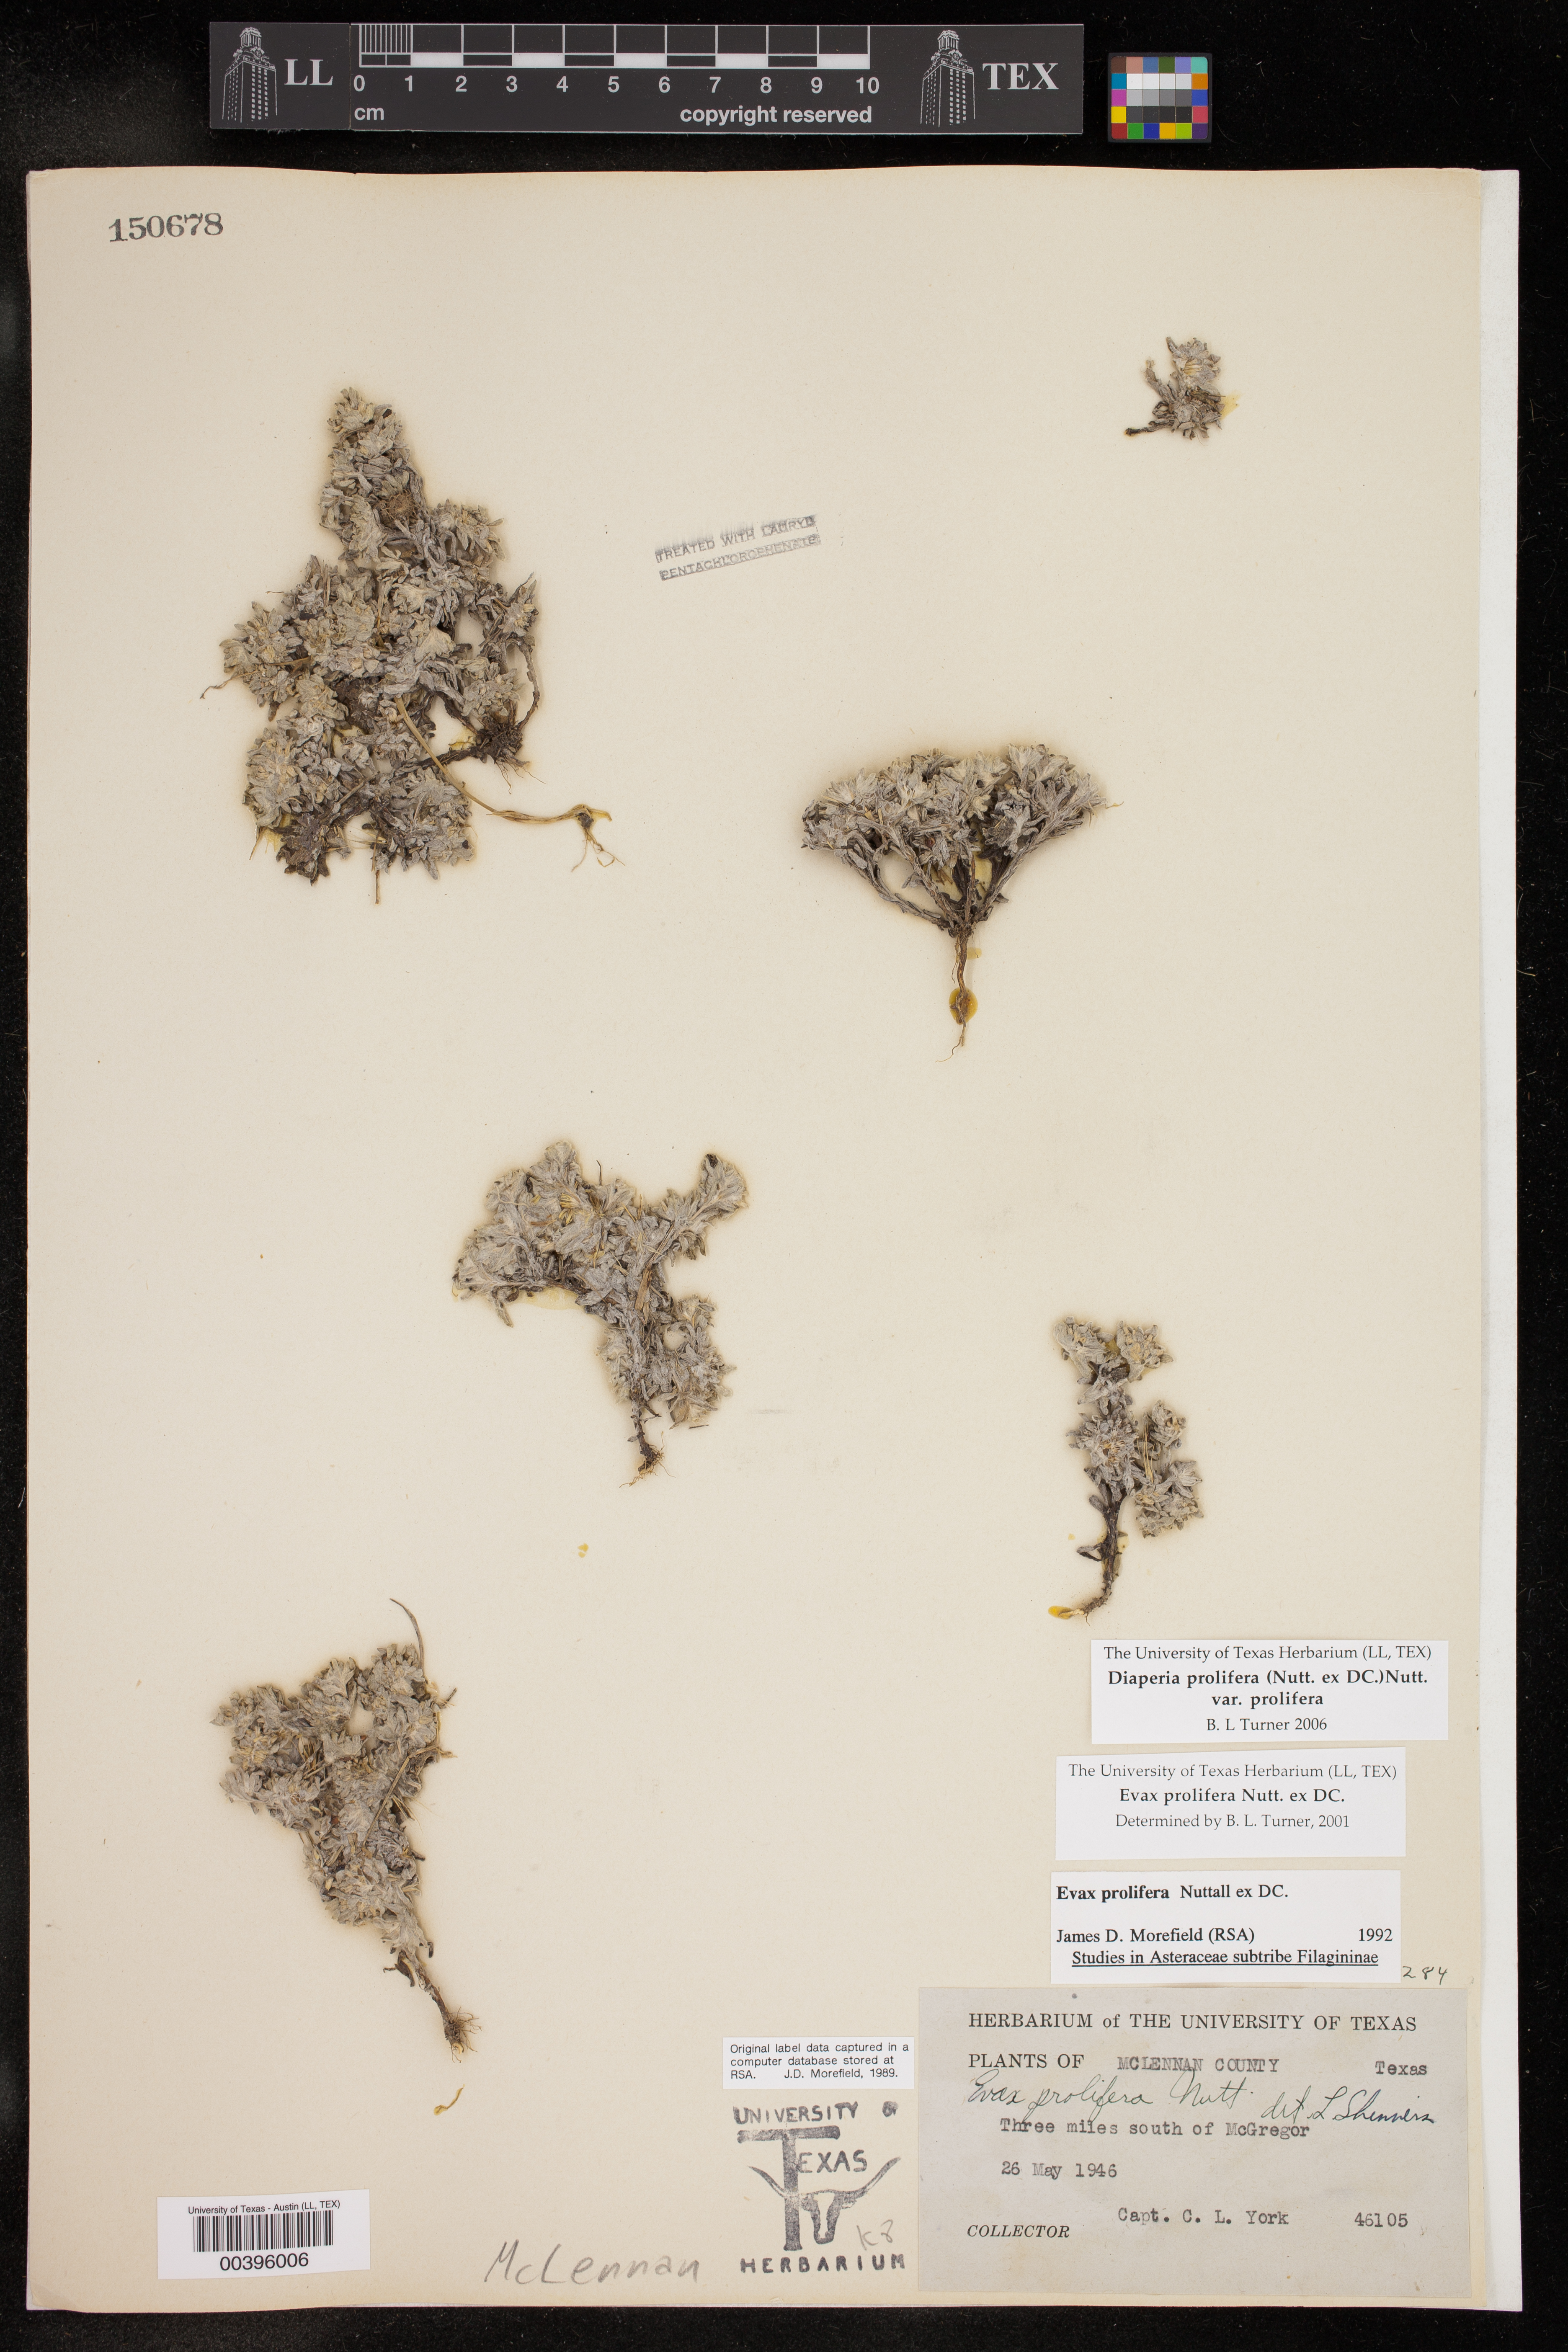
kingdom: Plantae
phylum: Tracheophyta
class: Magnoliopsida
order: Asterales
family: Asteraceae
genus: Diaperia
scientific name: Diaperia prolifera
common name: Big-head rabbit-tobacco
